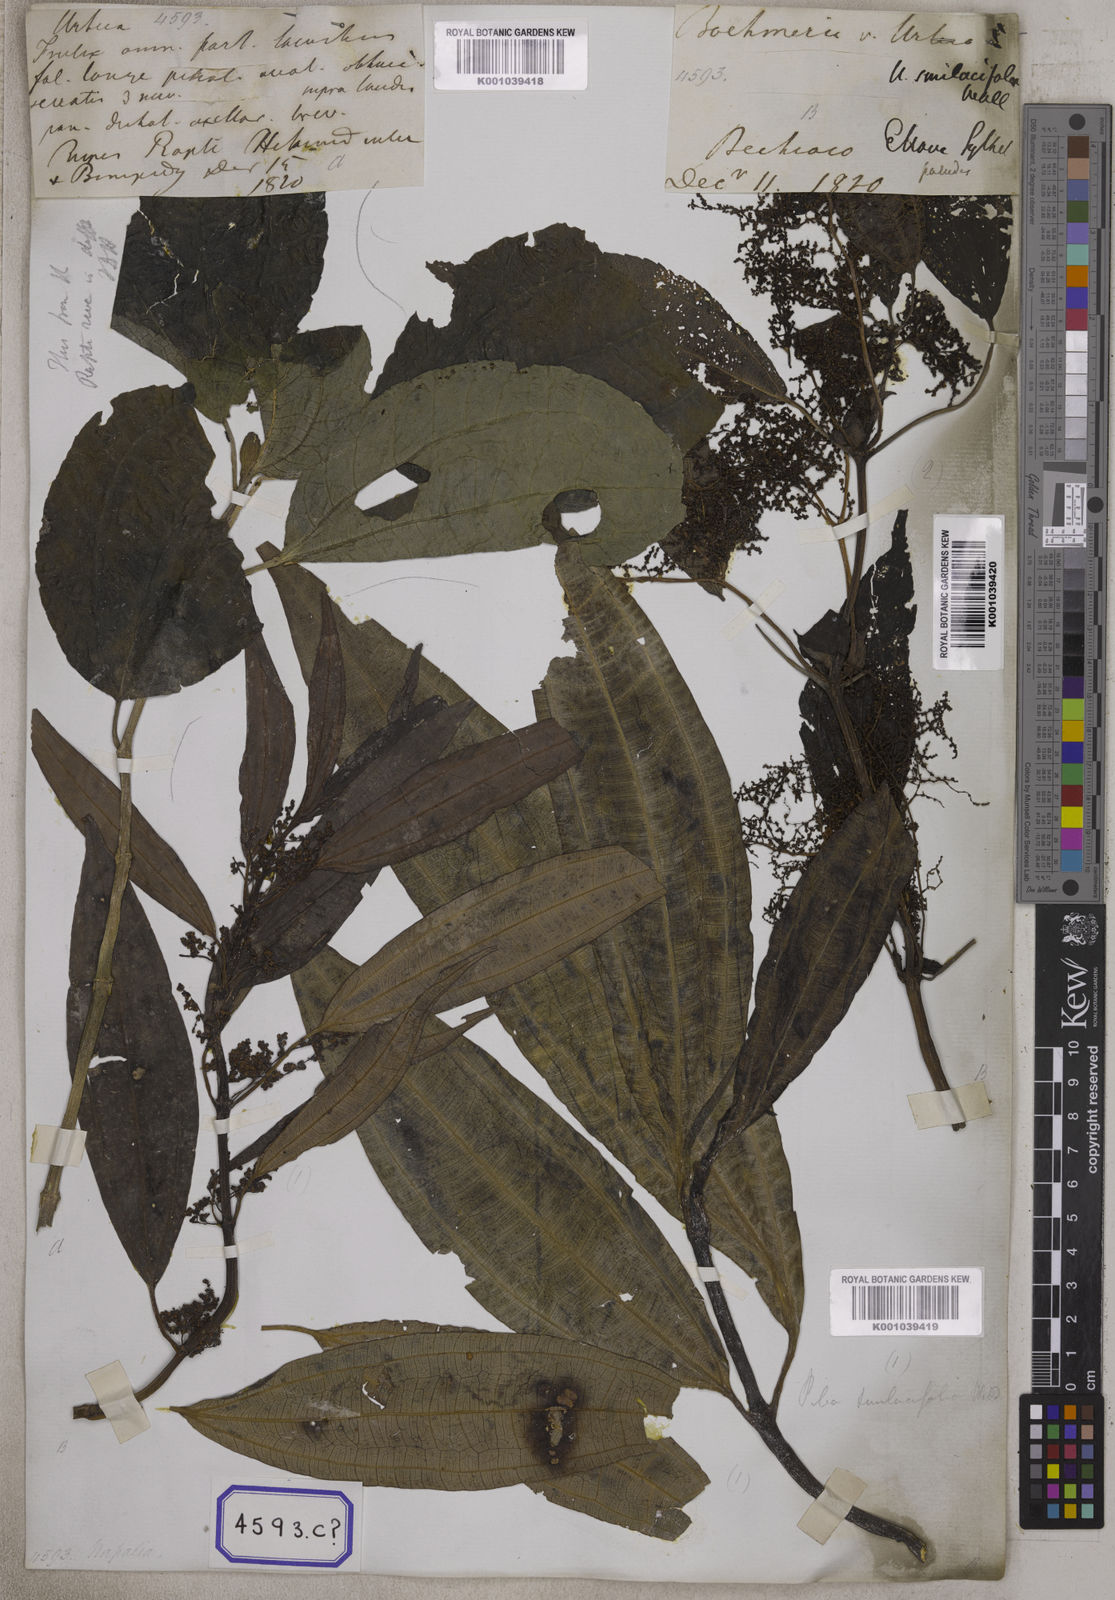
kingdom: Plantae
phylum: Tracheophyta
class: Magnoliopsida
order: Rosales
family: Urticaceae
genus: Urtica
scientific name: Urtica
